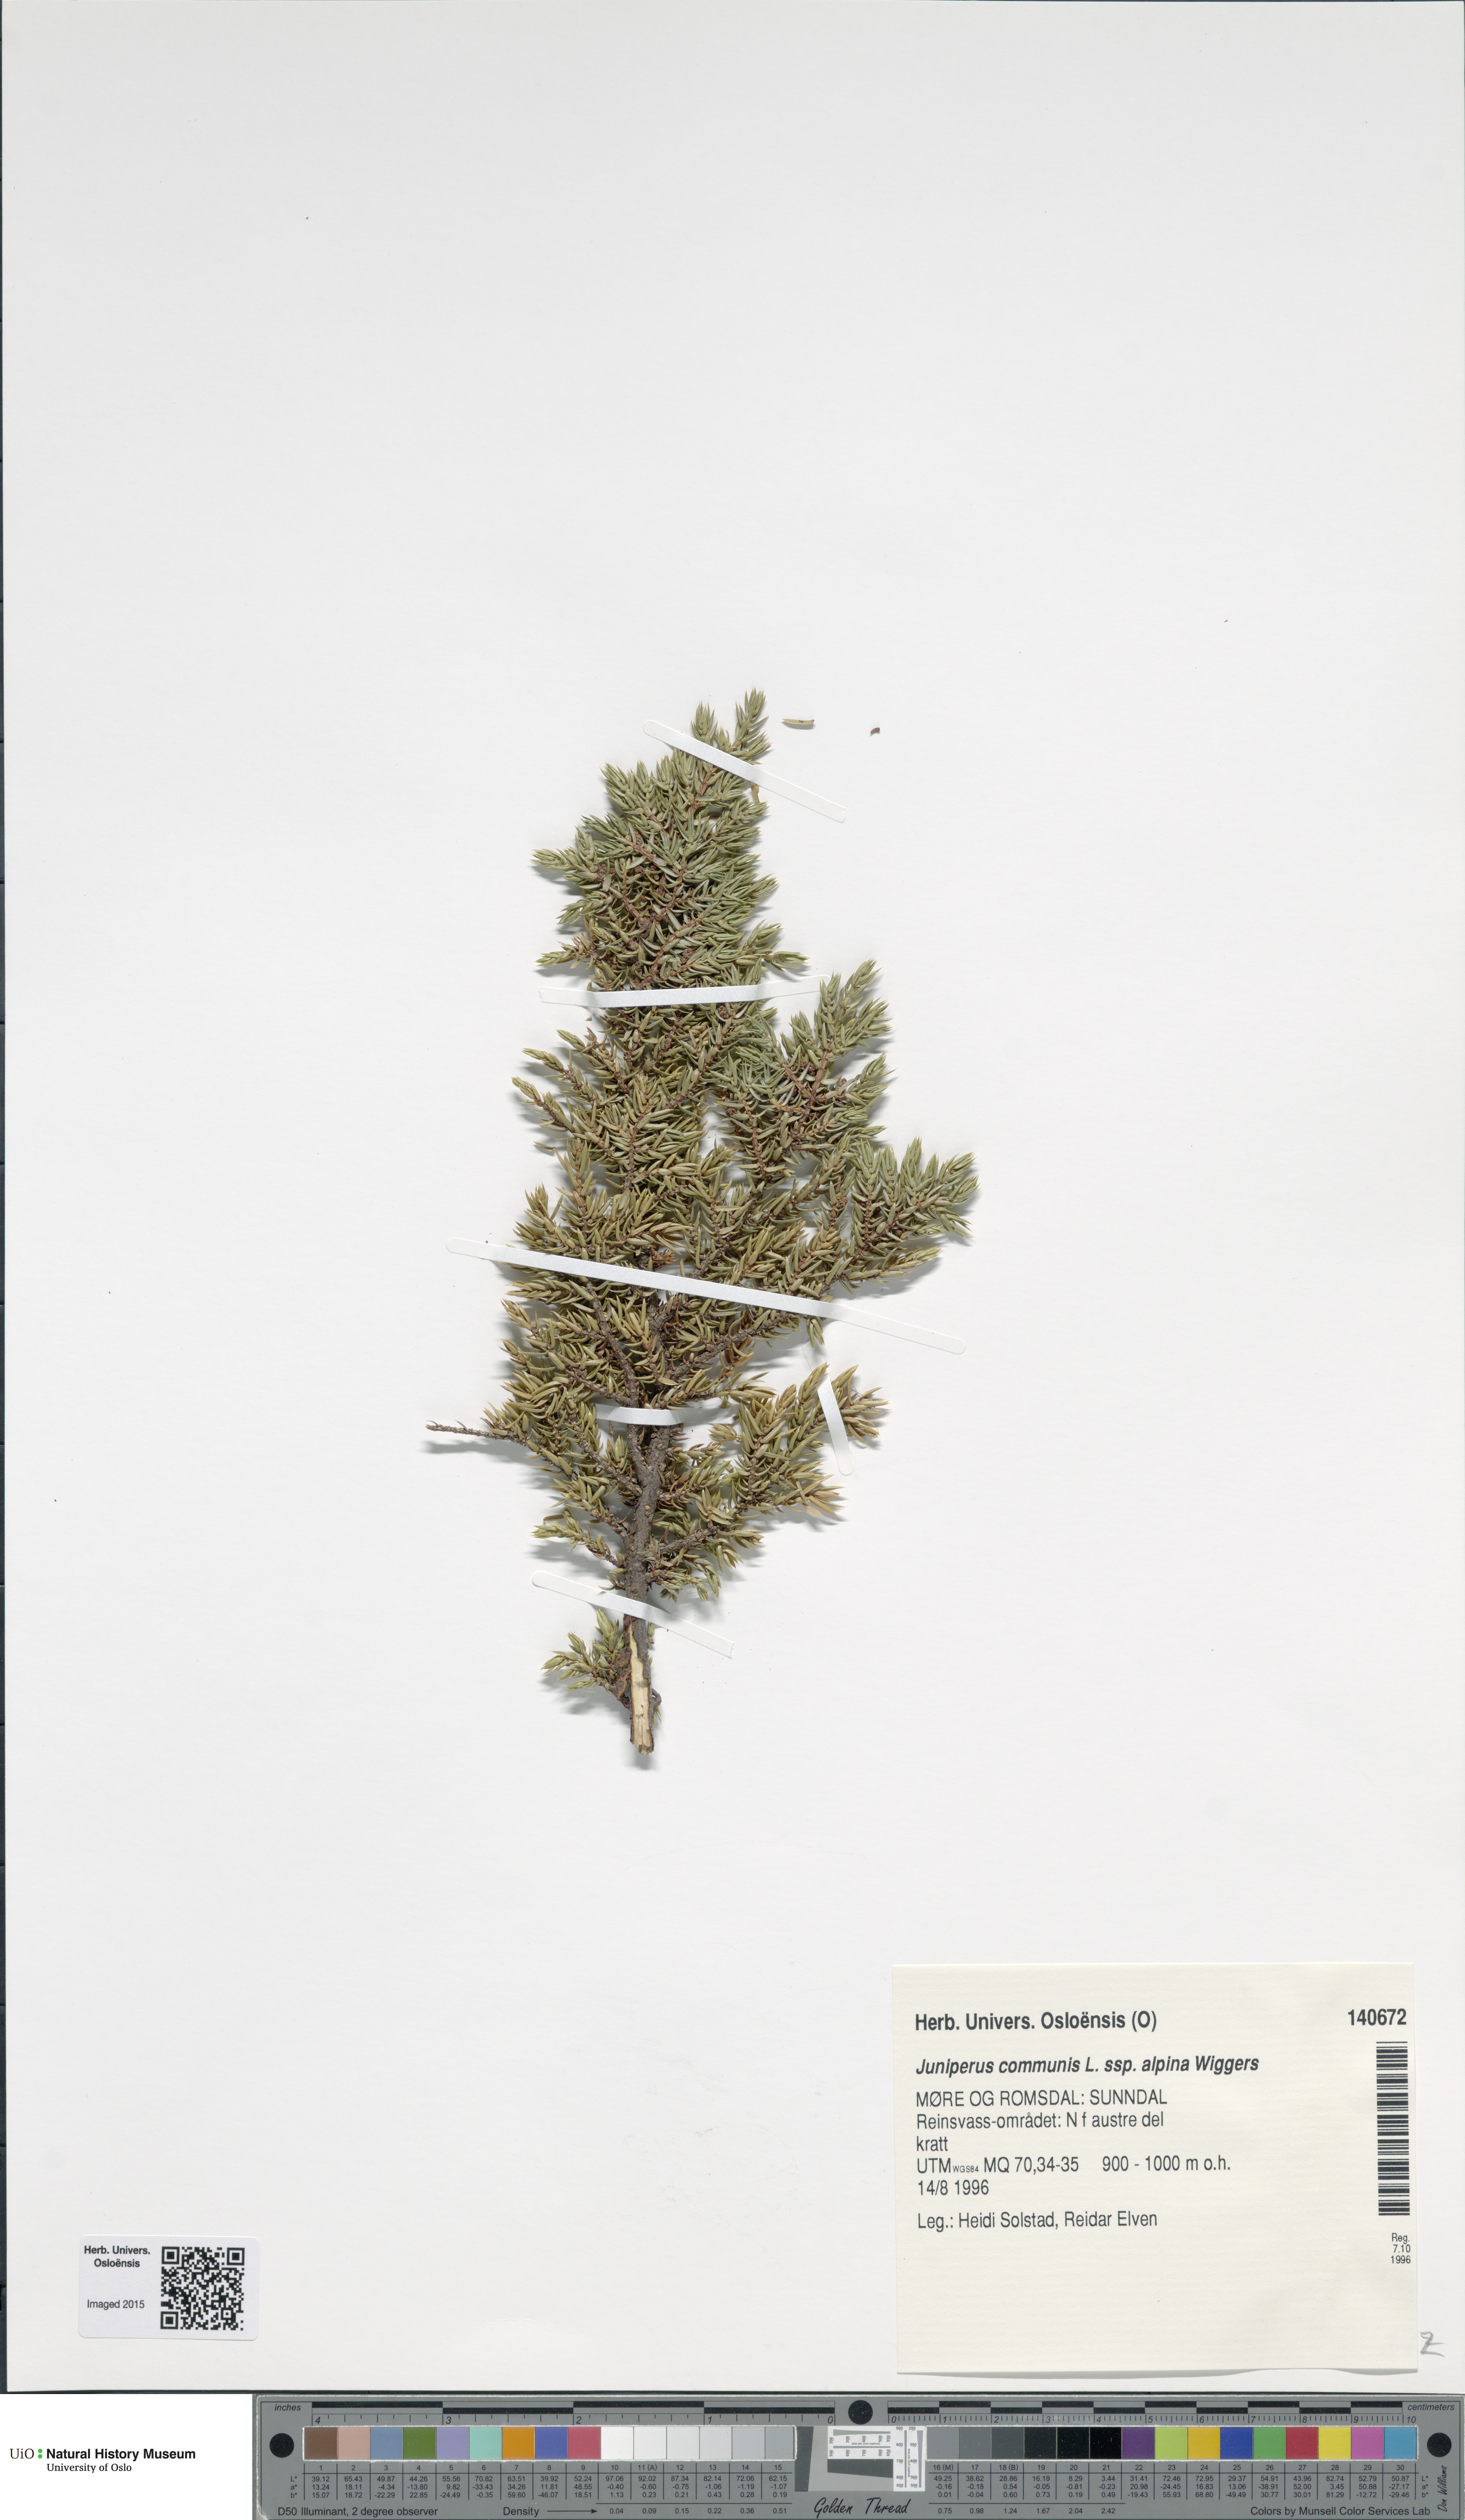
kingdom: Plantae
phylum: Tracheophyta
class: Pinopsida
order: Pinales
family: Cupressaceae
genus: Juniperus
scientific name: Juniperus communis
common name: Common juniper
